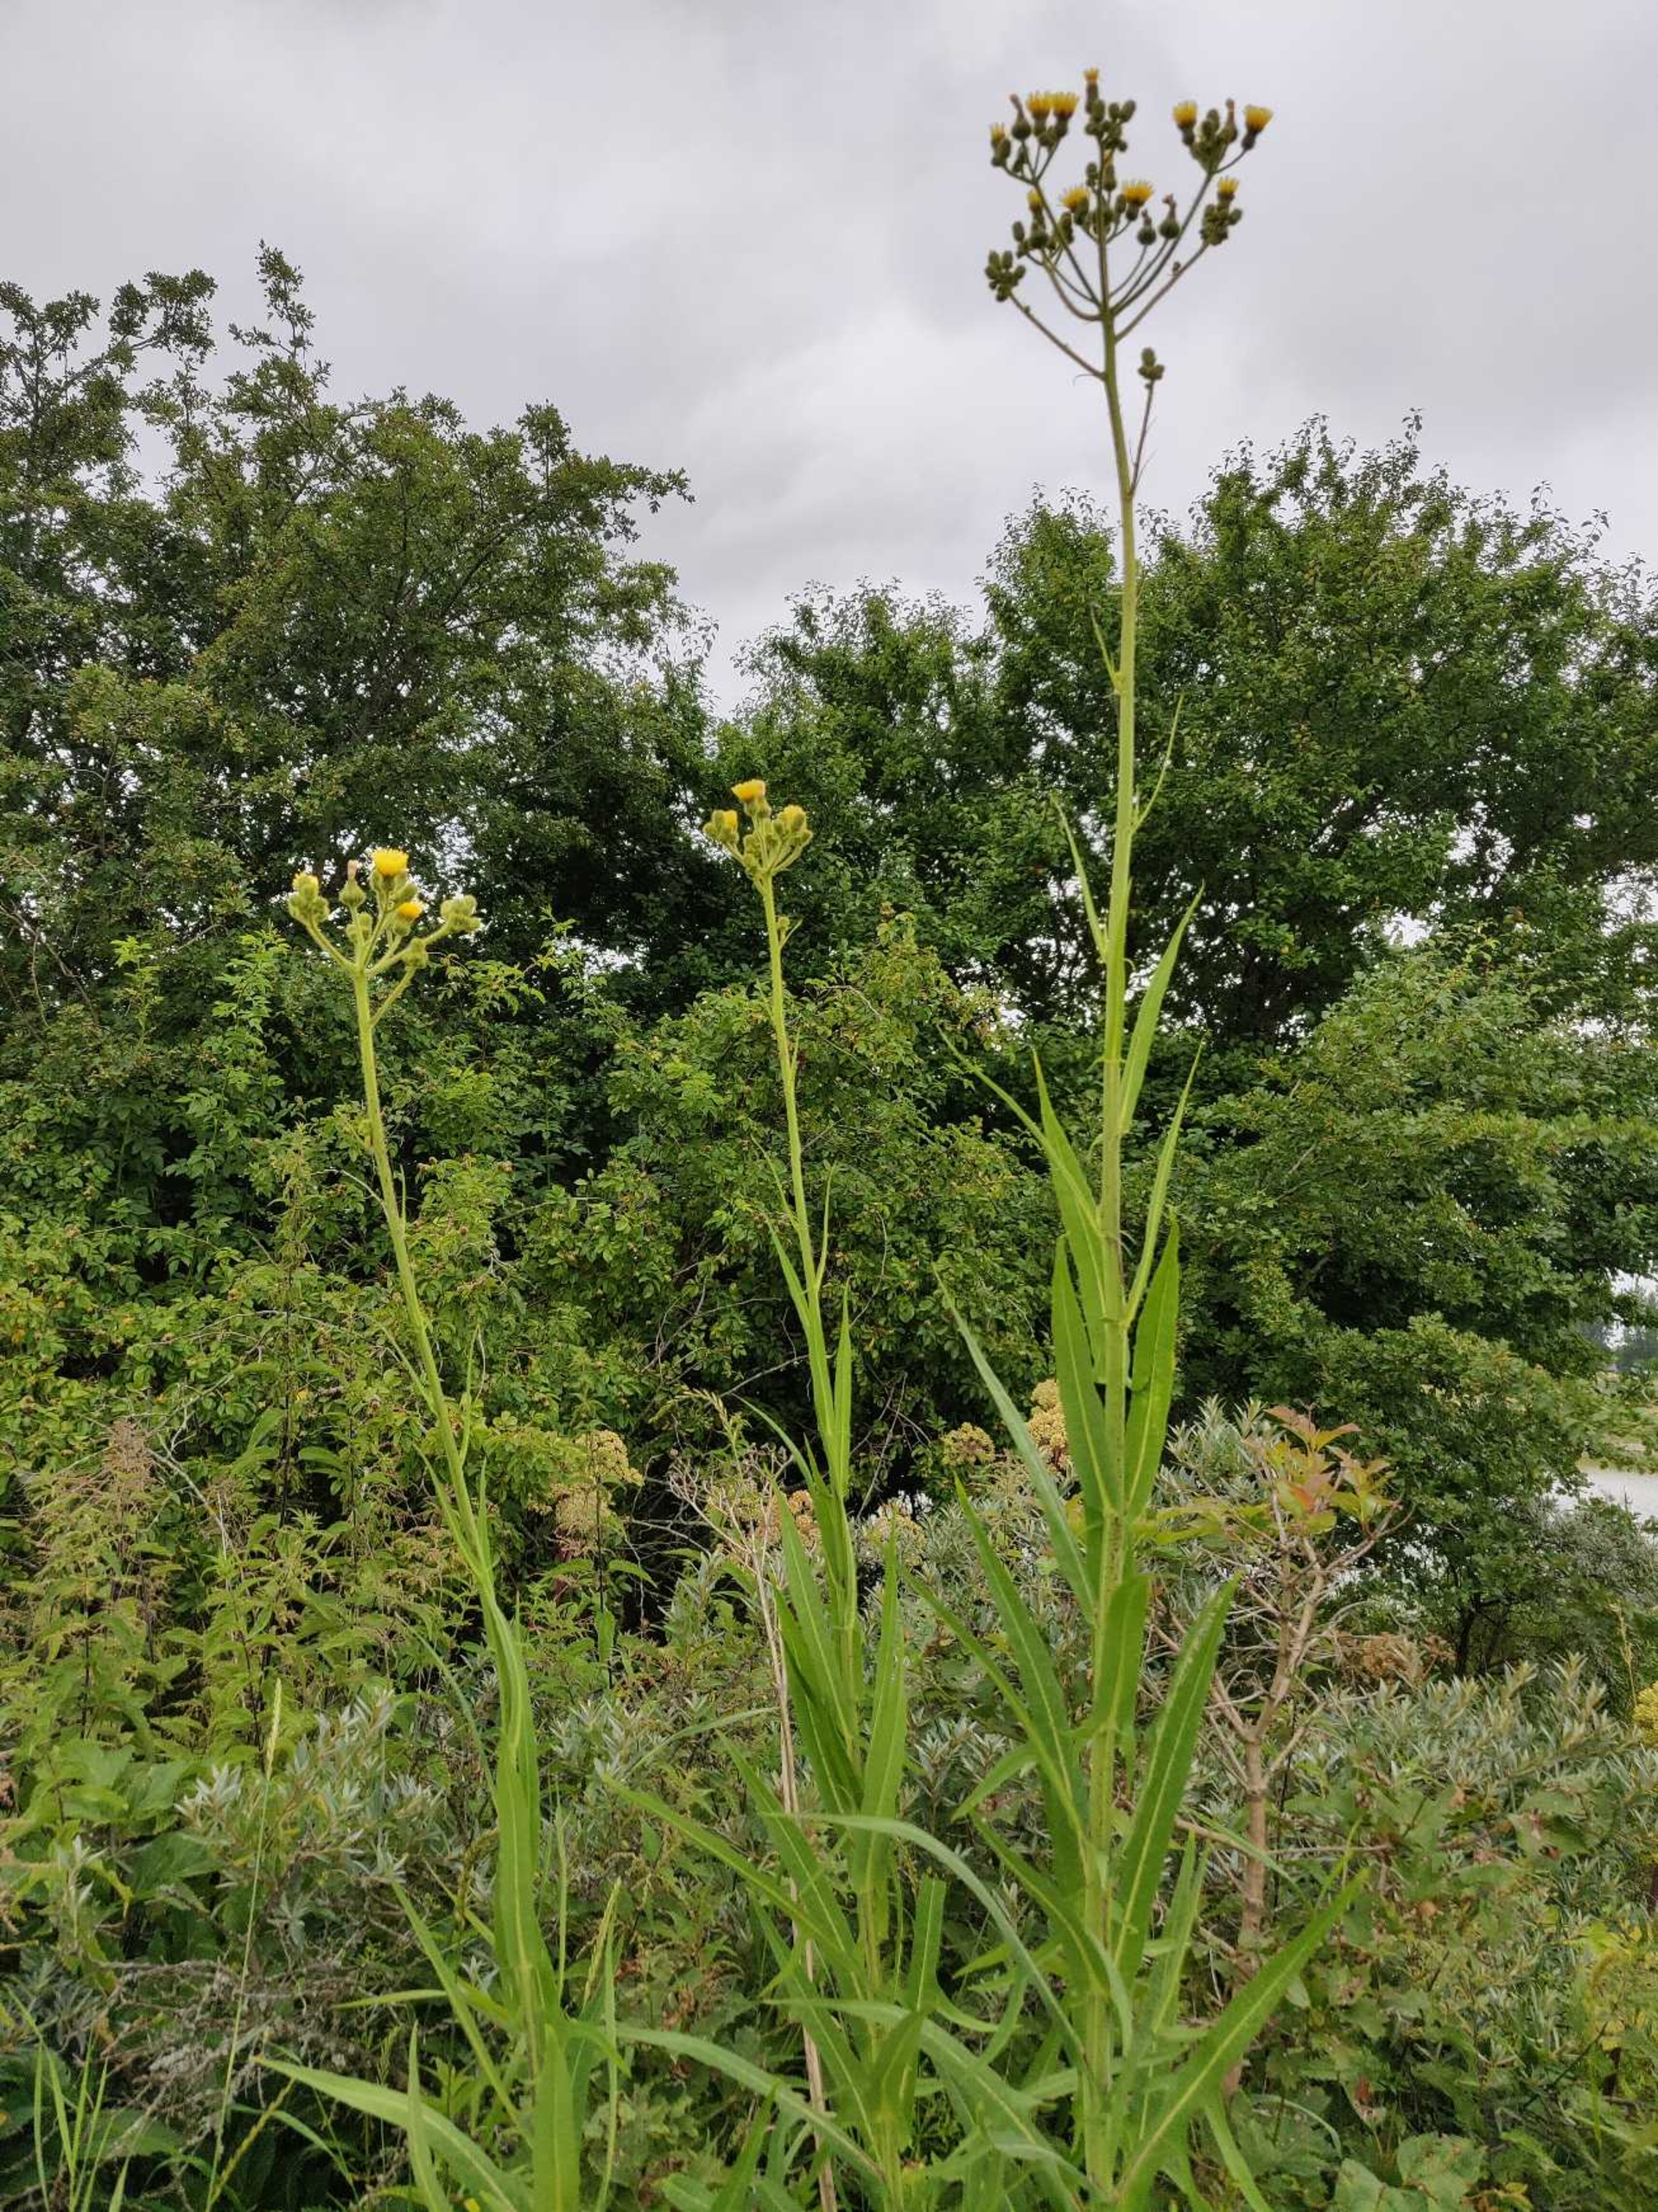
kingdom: Plantae
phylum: Tracheophyta
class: Magnoliopsida
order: Asterales
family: Asteraceae
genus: Sonchus
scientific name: Sonchus palustris
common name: Kær-svinemælk
